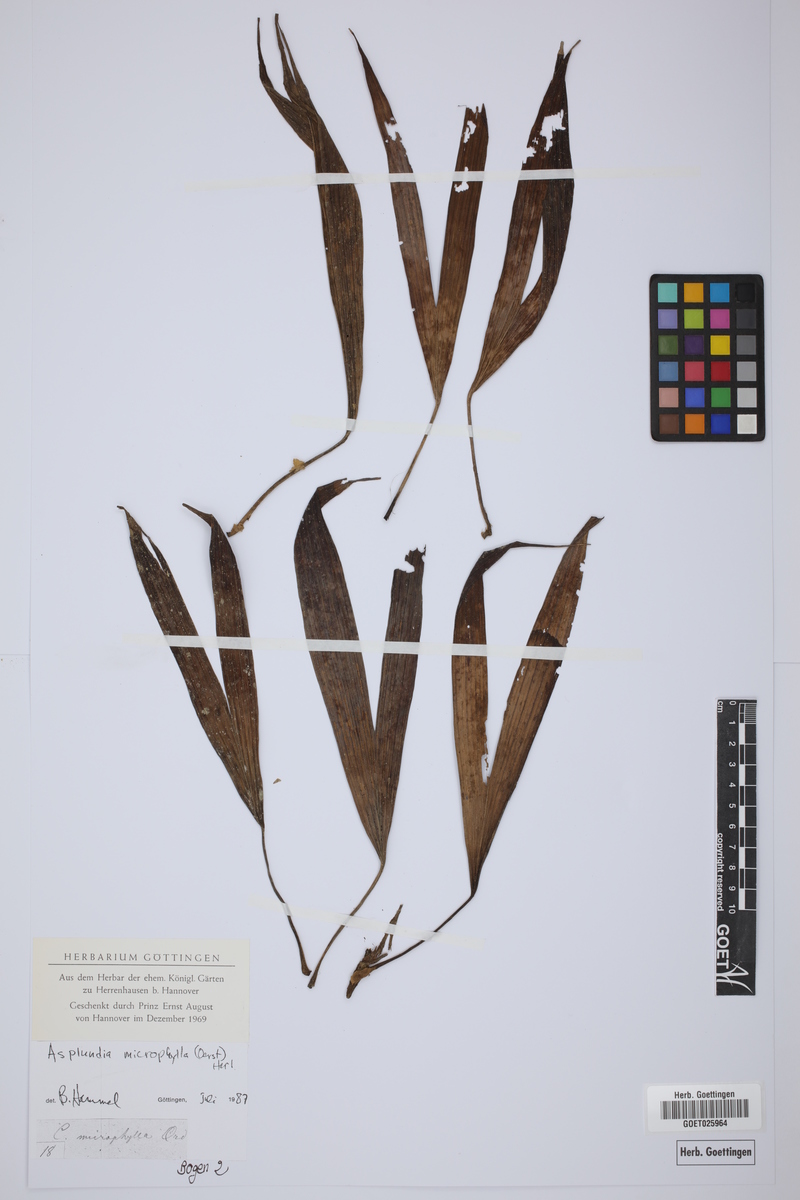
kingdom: Plantae
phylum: Tracheophyta
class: Liliopsida
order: Pandanales
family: Cyclanthaceae
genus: Asplundia
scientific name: Asplundia microphylla
